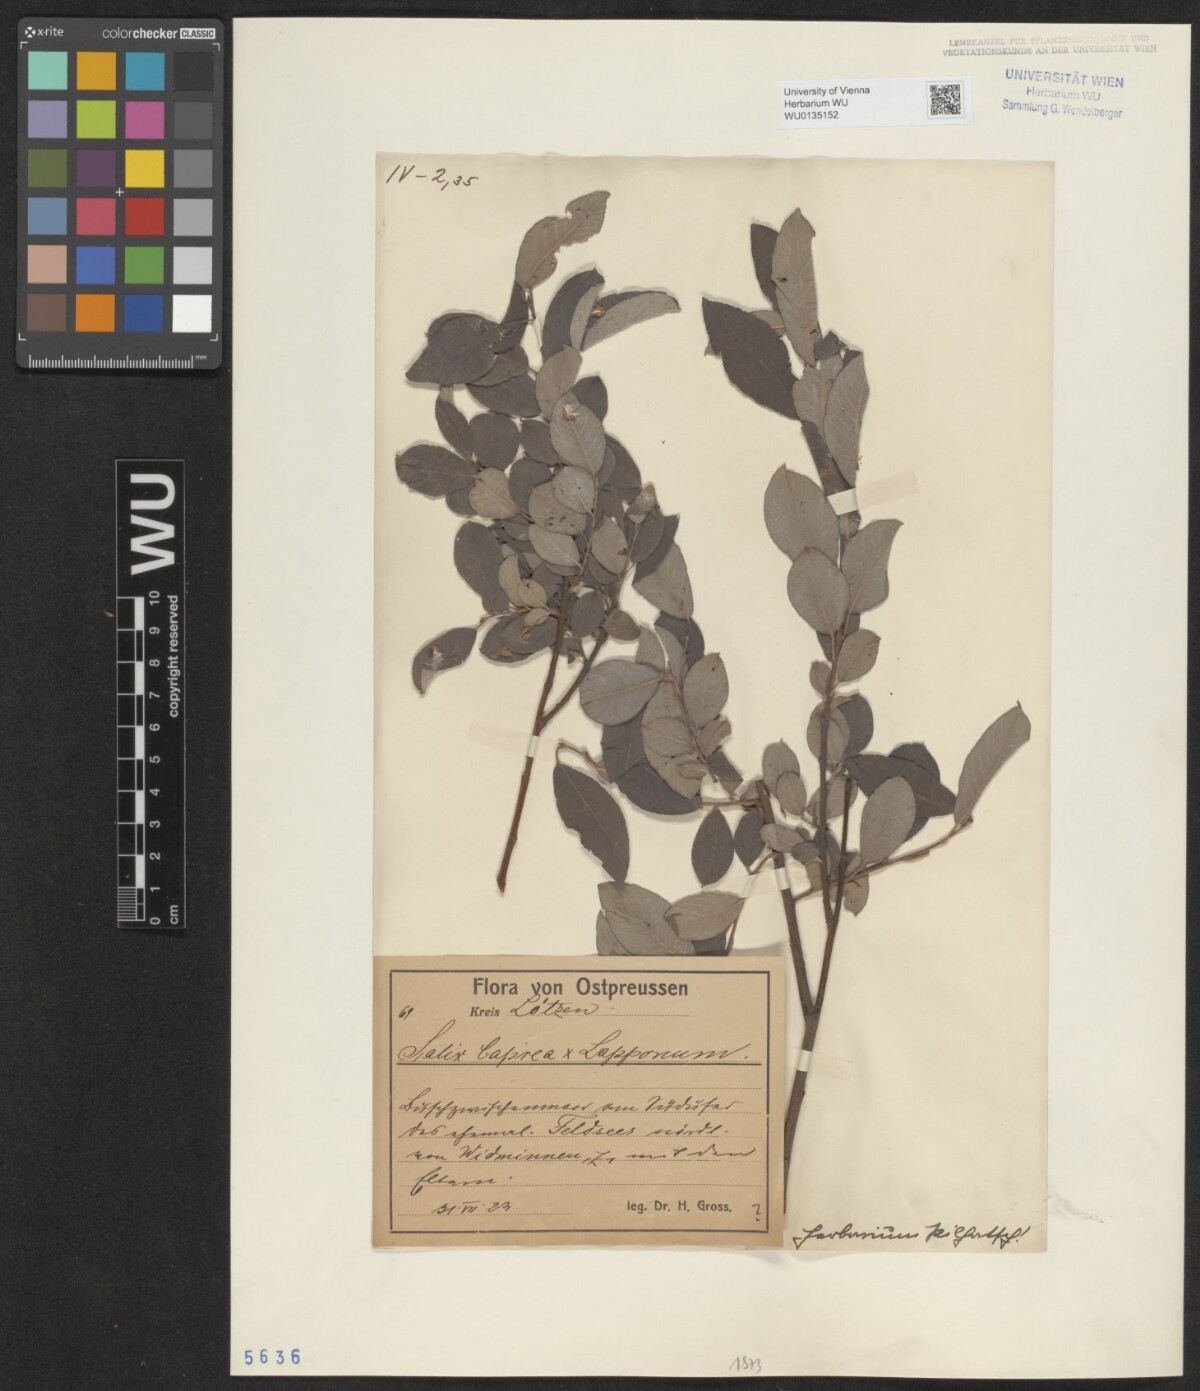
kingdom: Plantae
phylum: Tracheophyta
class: Magnoliopsida
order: Malpighiales
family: Salicaceae
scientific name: Salicaceae
